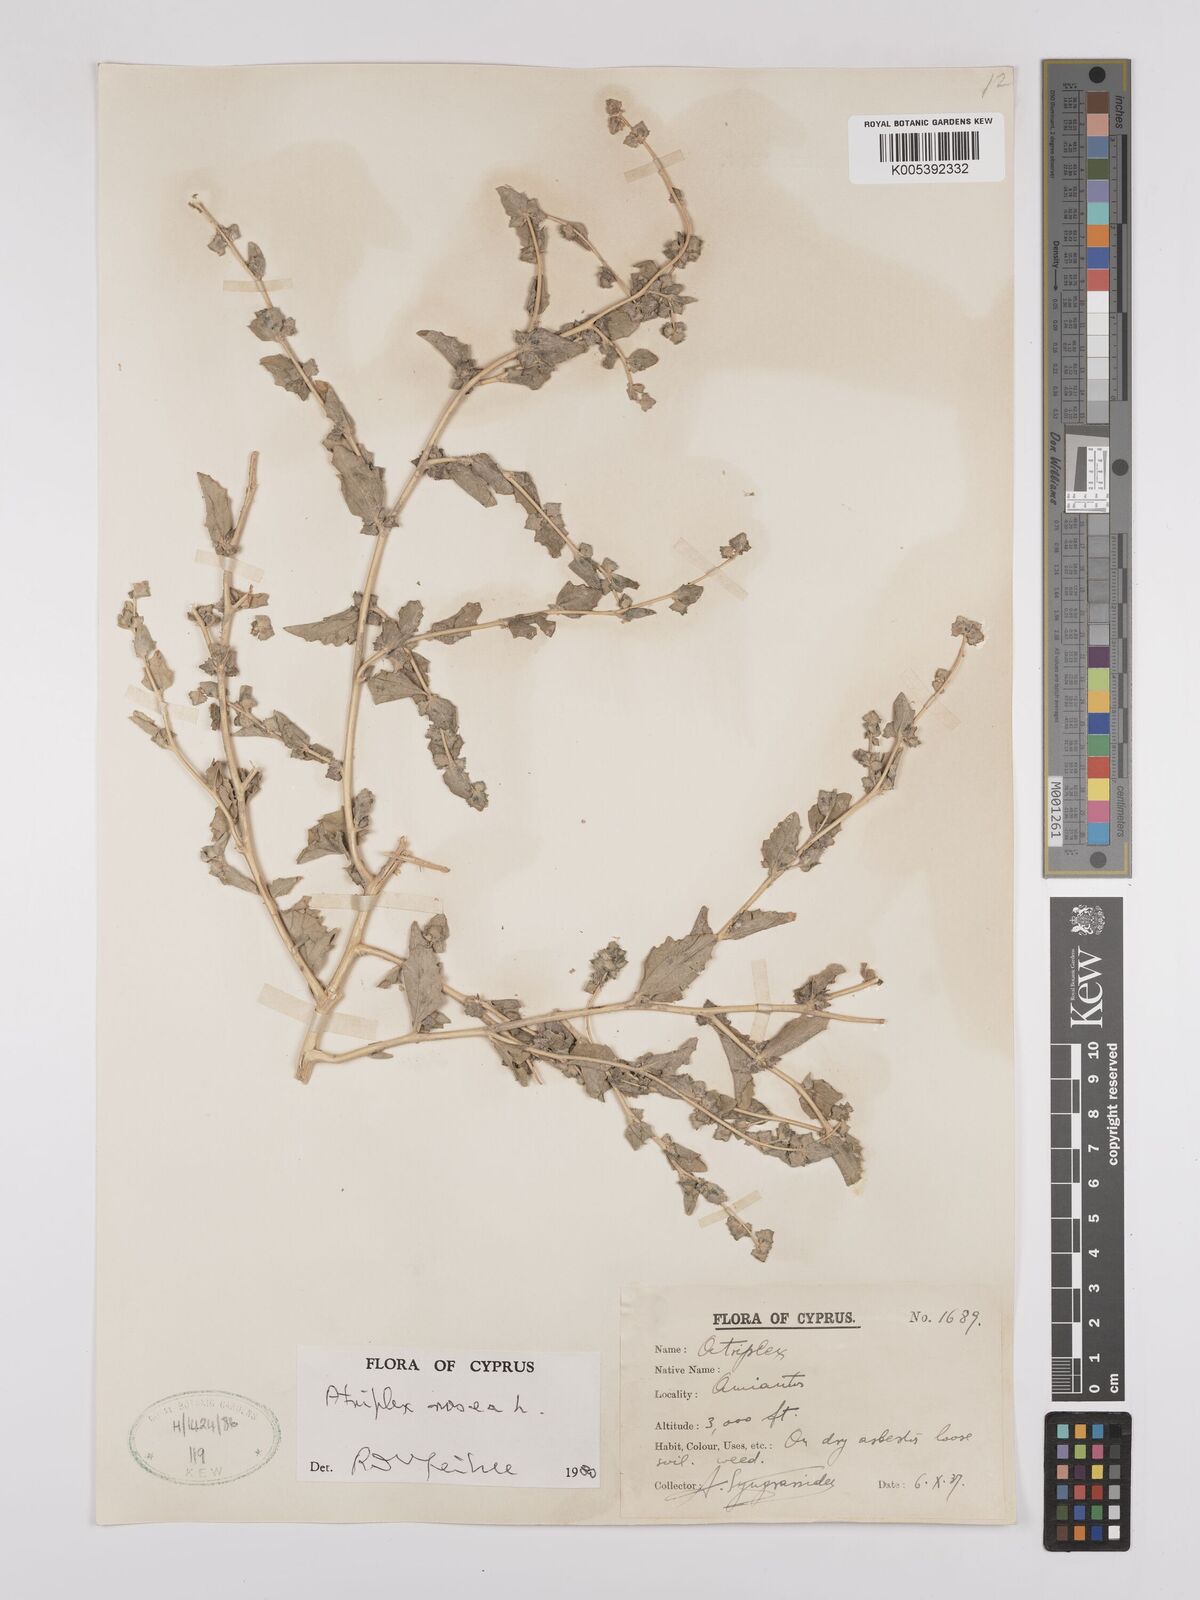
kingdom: Plantae
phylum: Tracheophyta
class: Magnoliopsida
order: Caryophyllales
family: Amaranthaceae
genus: Atriplex
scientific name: Atriplex
